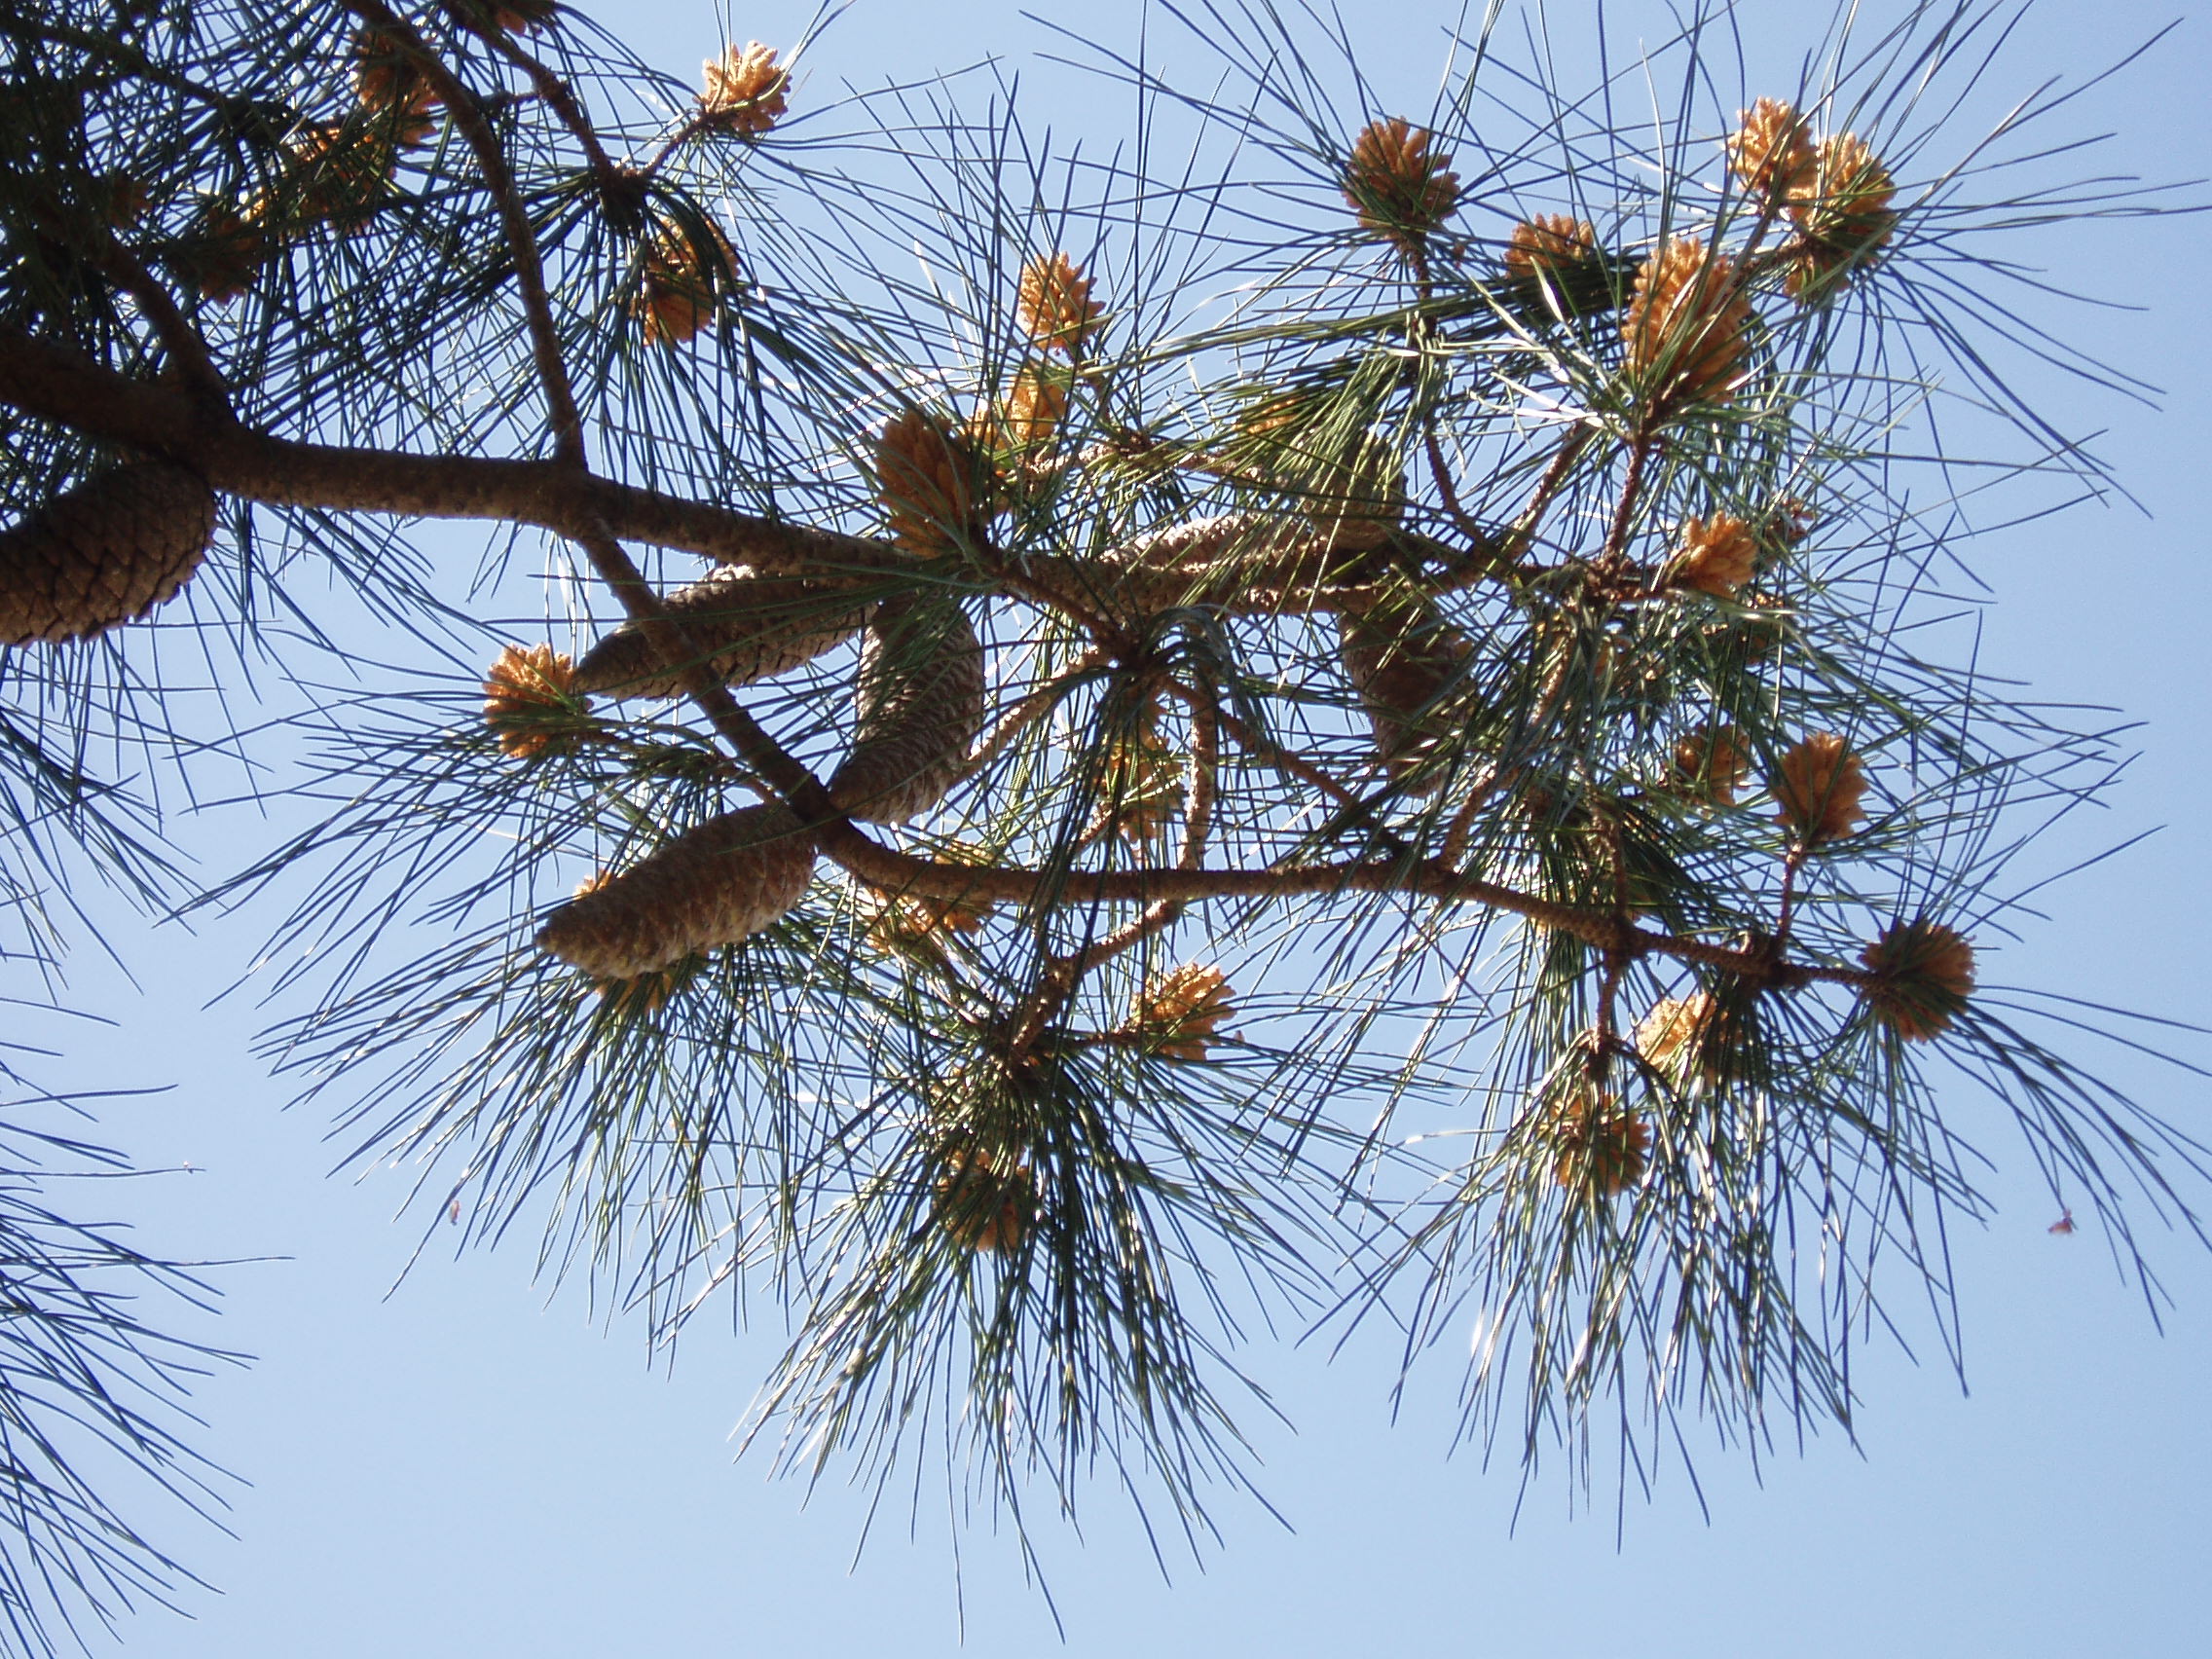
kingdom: Plantae
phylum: Tracheophyta
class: Pinopsida
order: Pinales
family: Pinaceae
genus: Pinus
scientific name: Pinus pinaster
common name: Maritime pine
